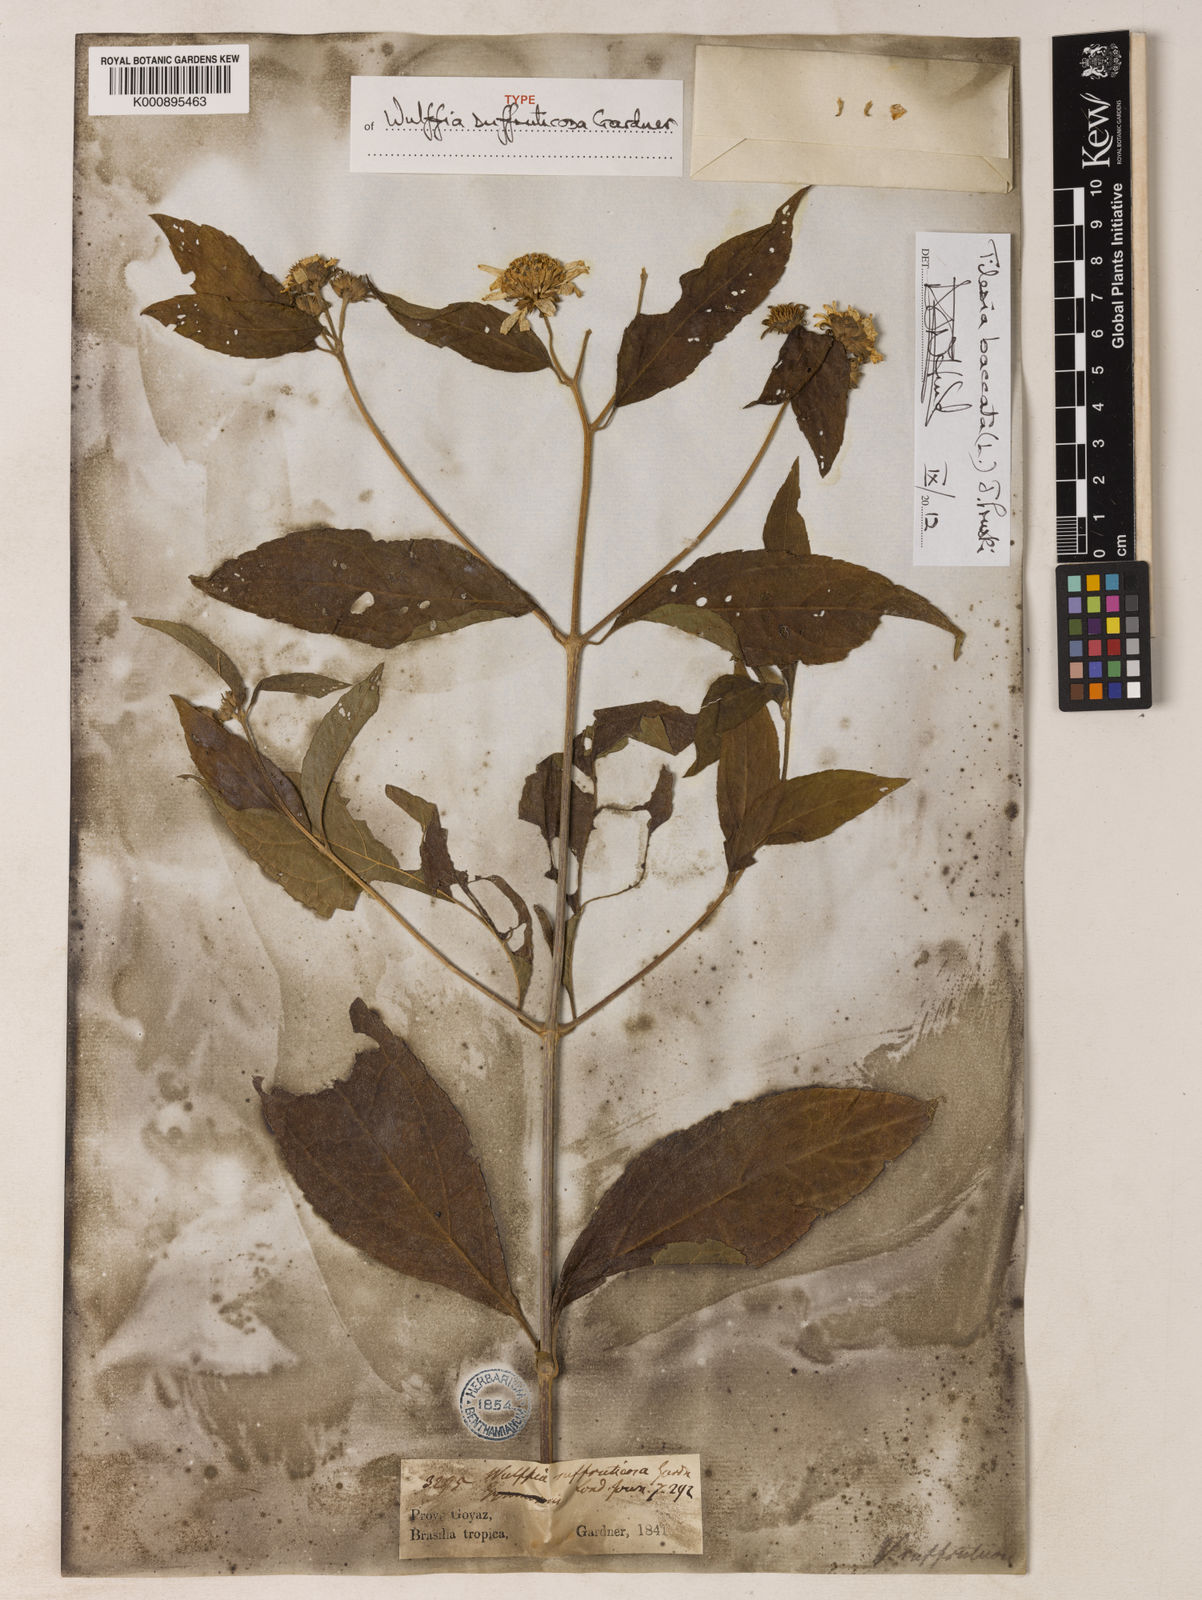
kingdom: Plantae
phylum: Tracheophyta
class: Magnoliopsida
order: Asterales
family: Asteraceae
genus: Tilesia
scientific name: Tilesia baccata
